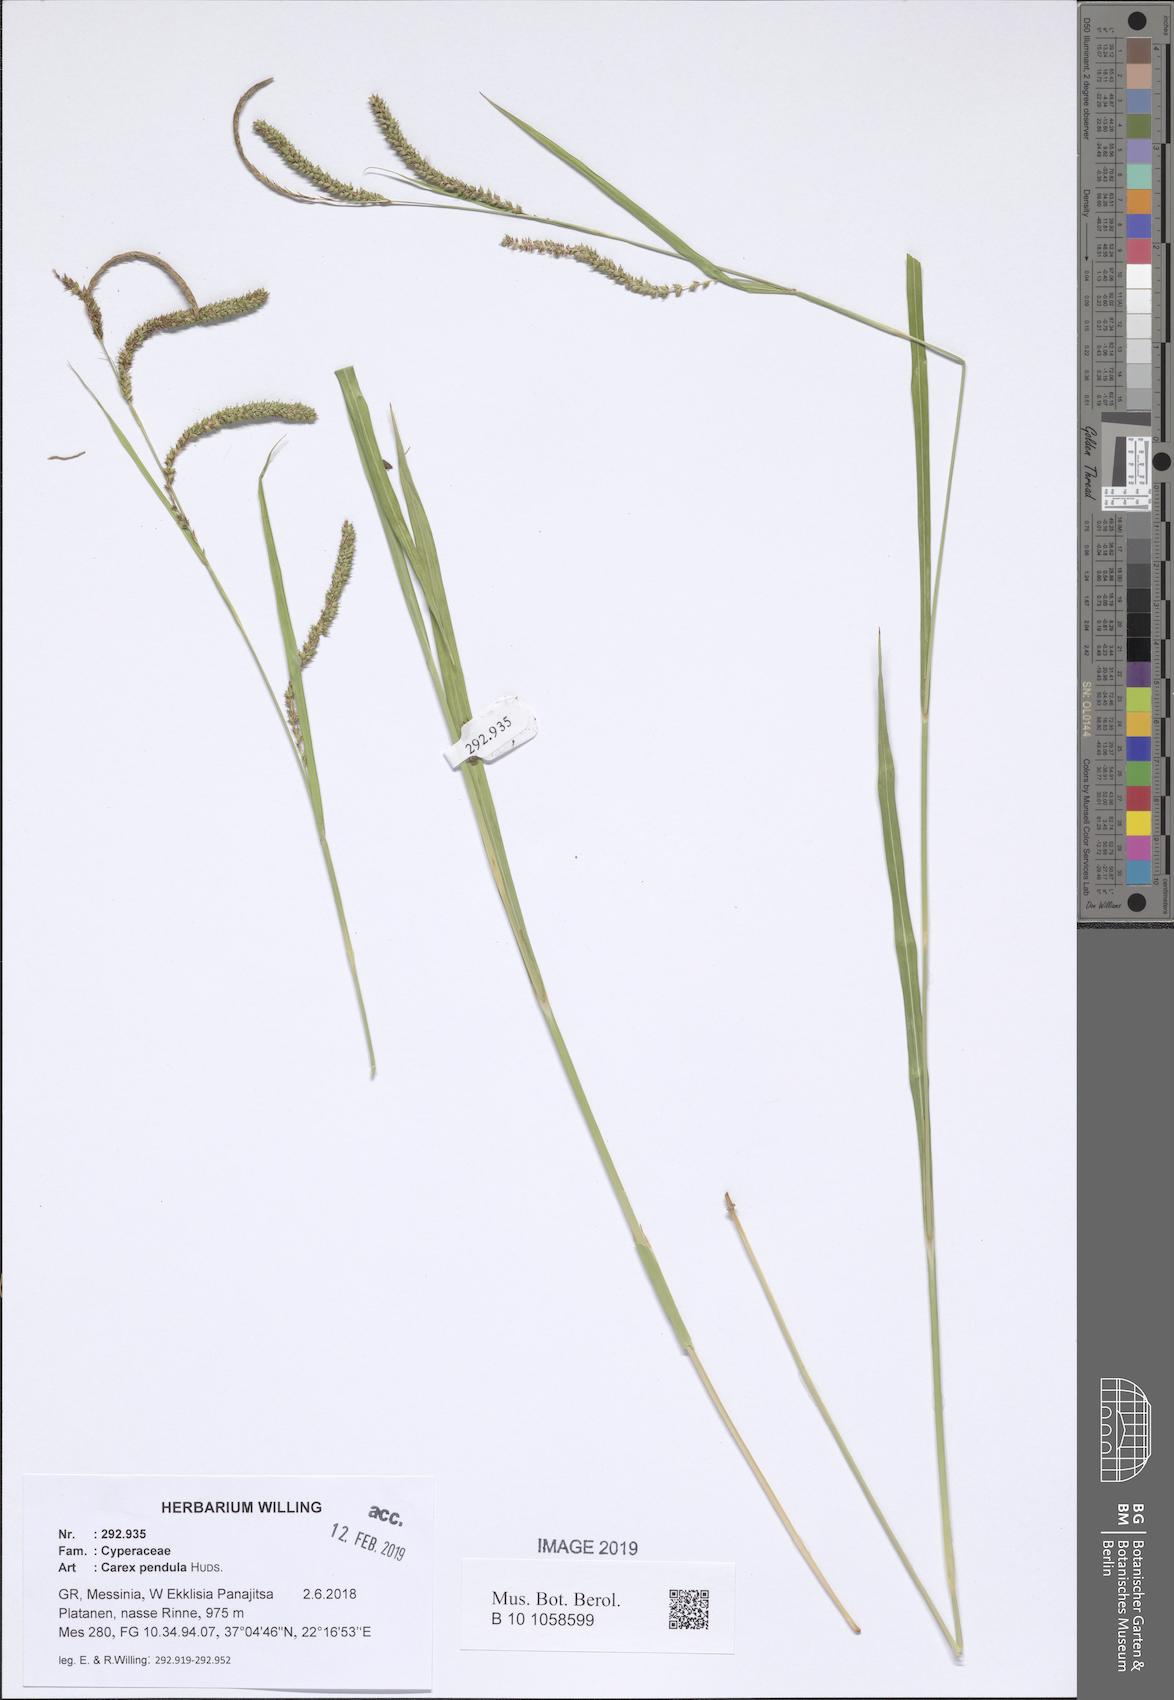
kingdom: Plantae
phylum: Tracheophyta
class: Liliopsida
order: Poales
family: Cyperaceae
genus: Carex
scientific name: Carex pendula
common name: Pendulous sedge
